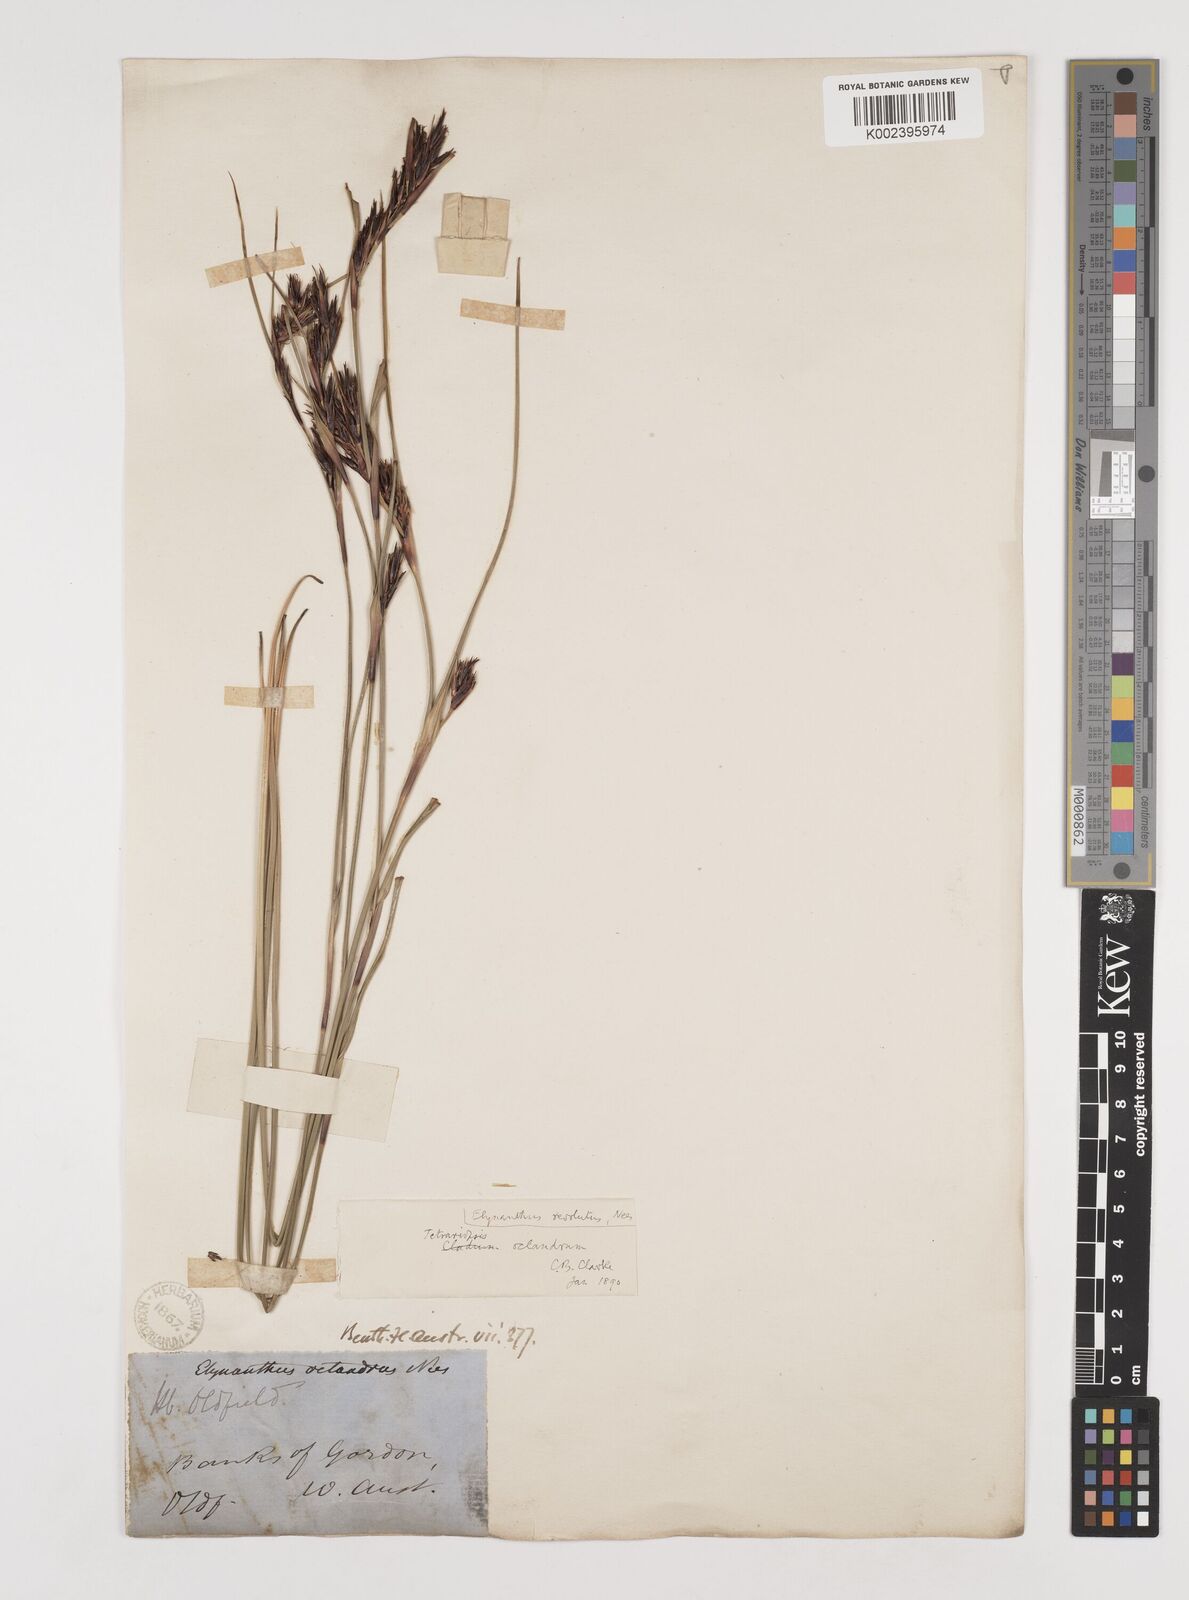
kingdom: Plantae
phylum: Tracheophyta
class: Liliopsida
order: Poales
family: Cyperaceae
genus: Tetraria
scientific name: Tetraria octandra
